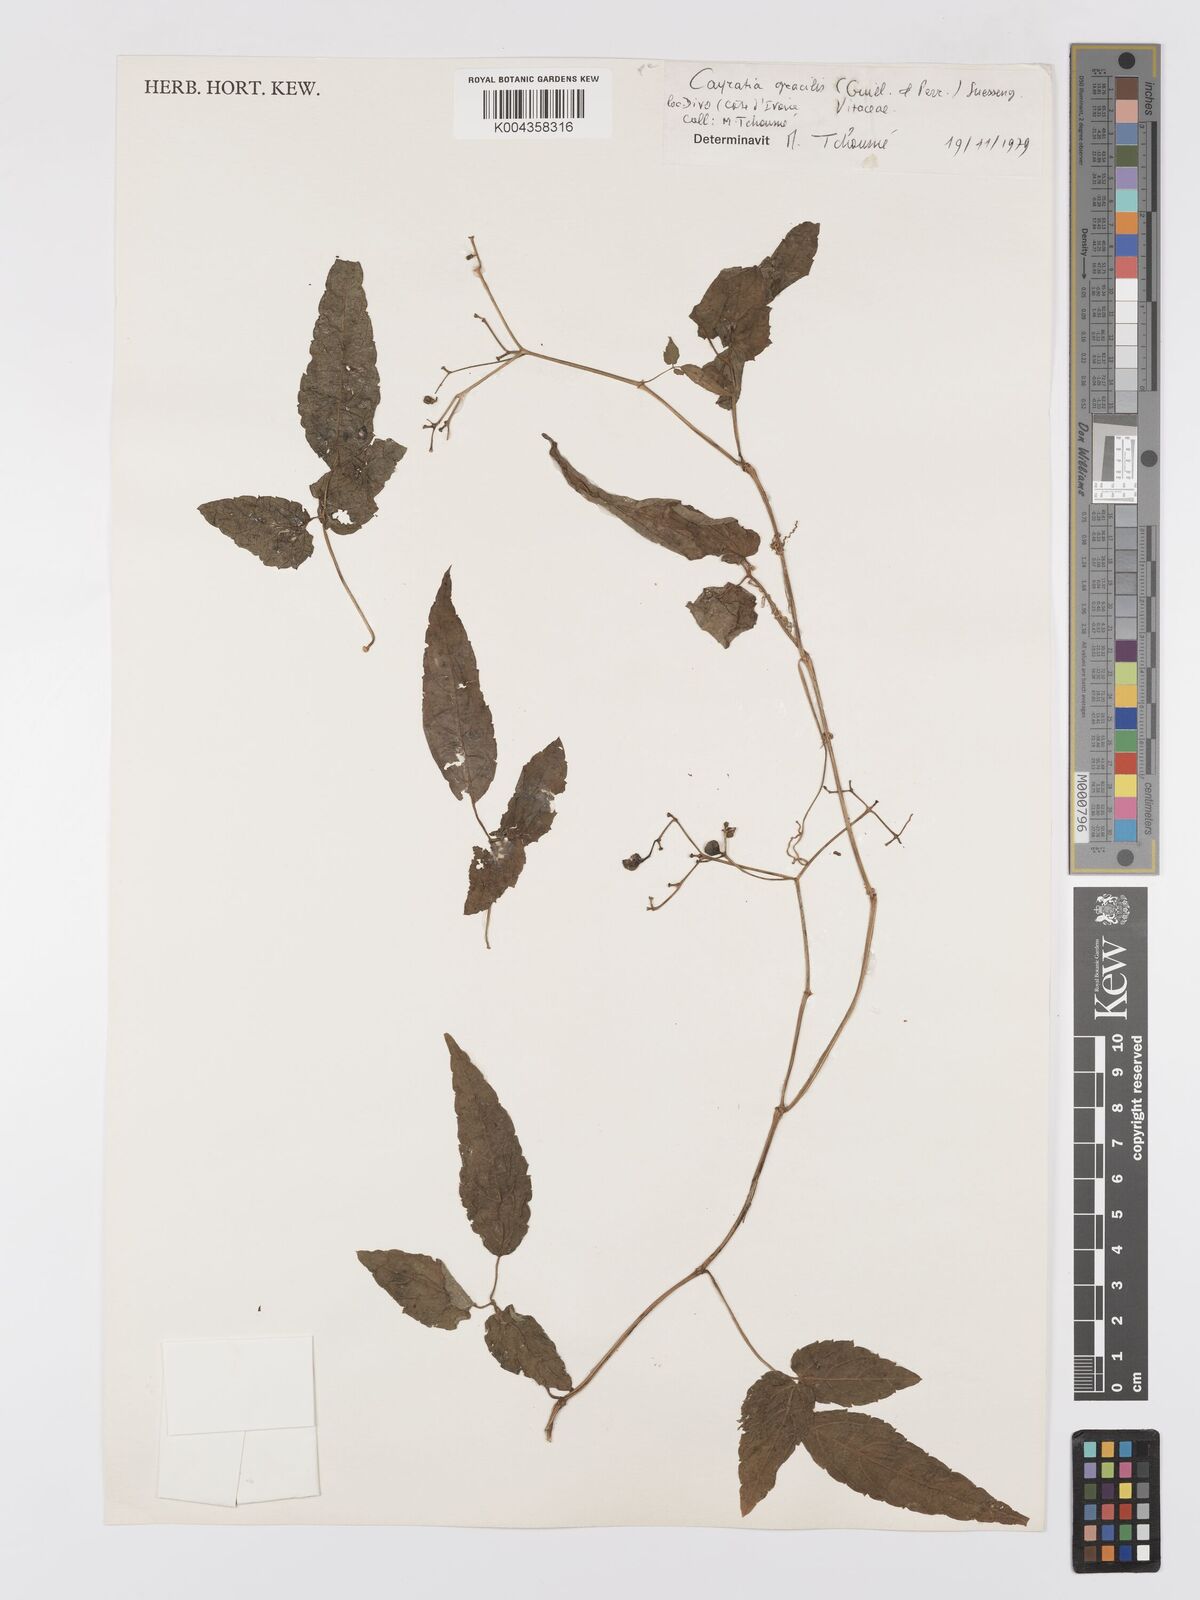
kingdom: Plantae
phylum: Tracheophyta
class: Magnoliopsida
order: Vitales
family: Vitaceae
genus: Afrocayratia
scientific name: Afrocayratia gracilis
